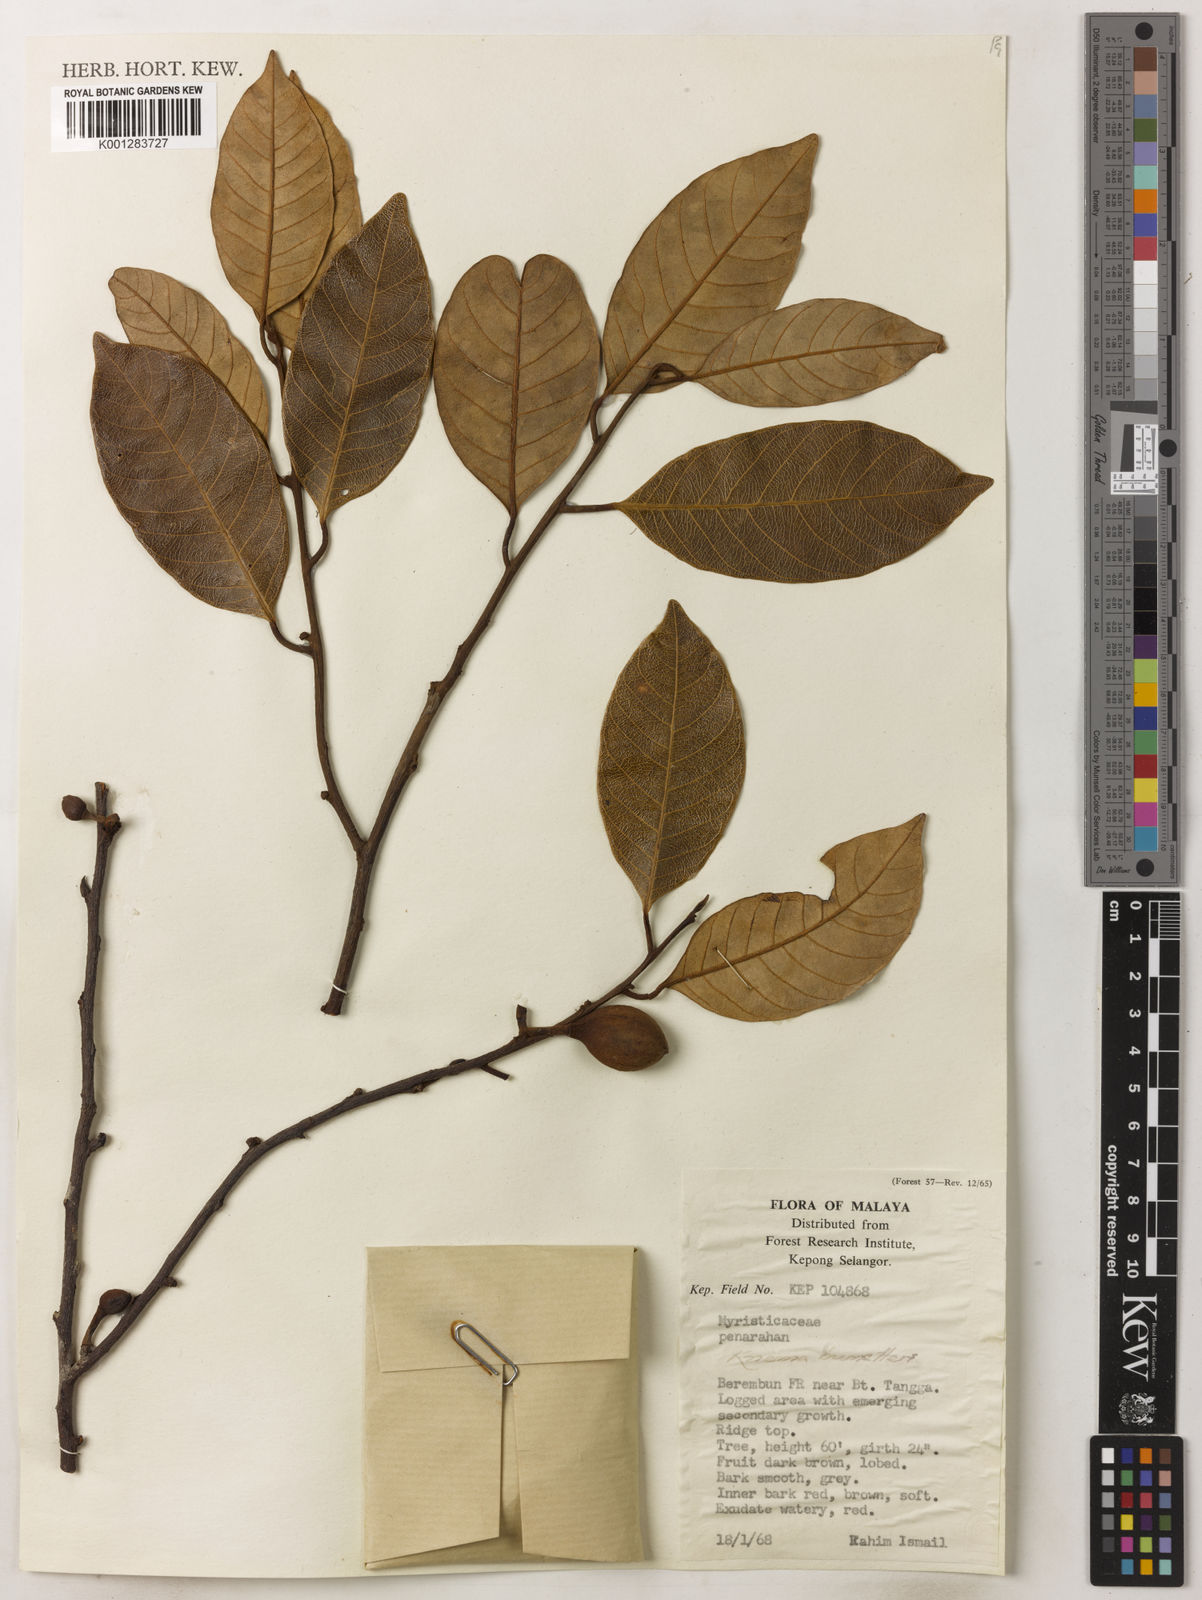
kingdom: Plantae
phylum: Tracheophyta
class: Magnoliopsida
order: Magnoliales
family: Myristicaceae
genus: Knema
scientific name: Knema kunstleri
